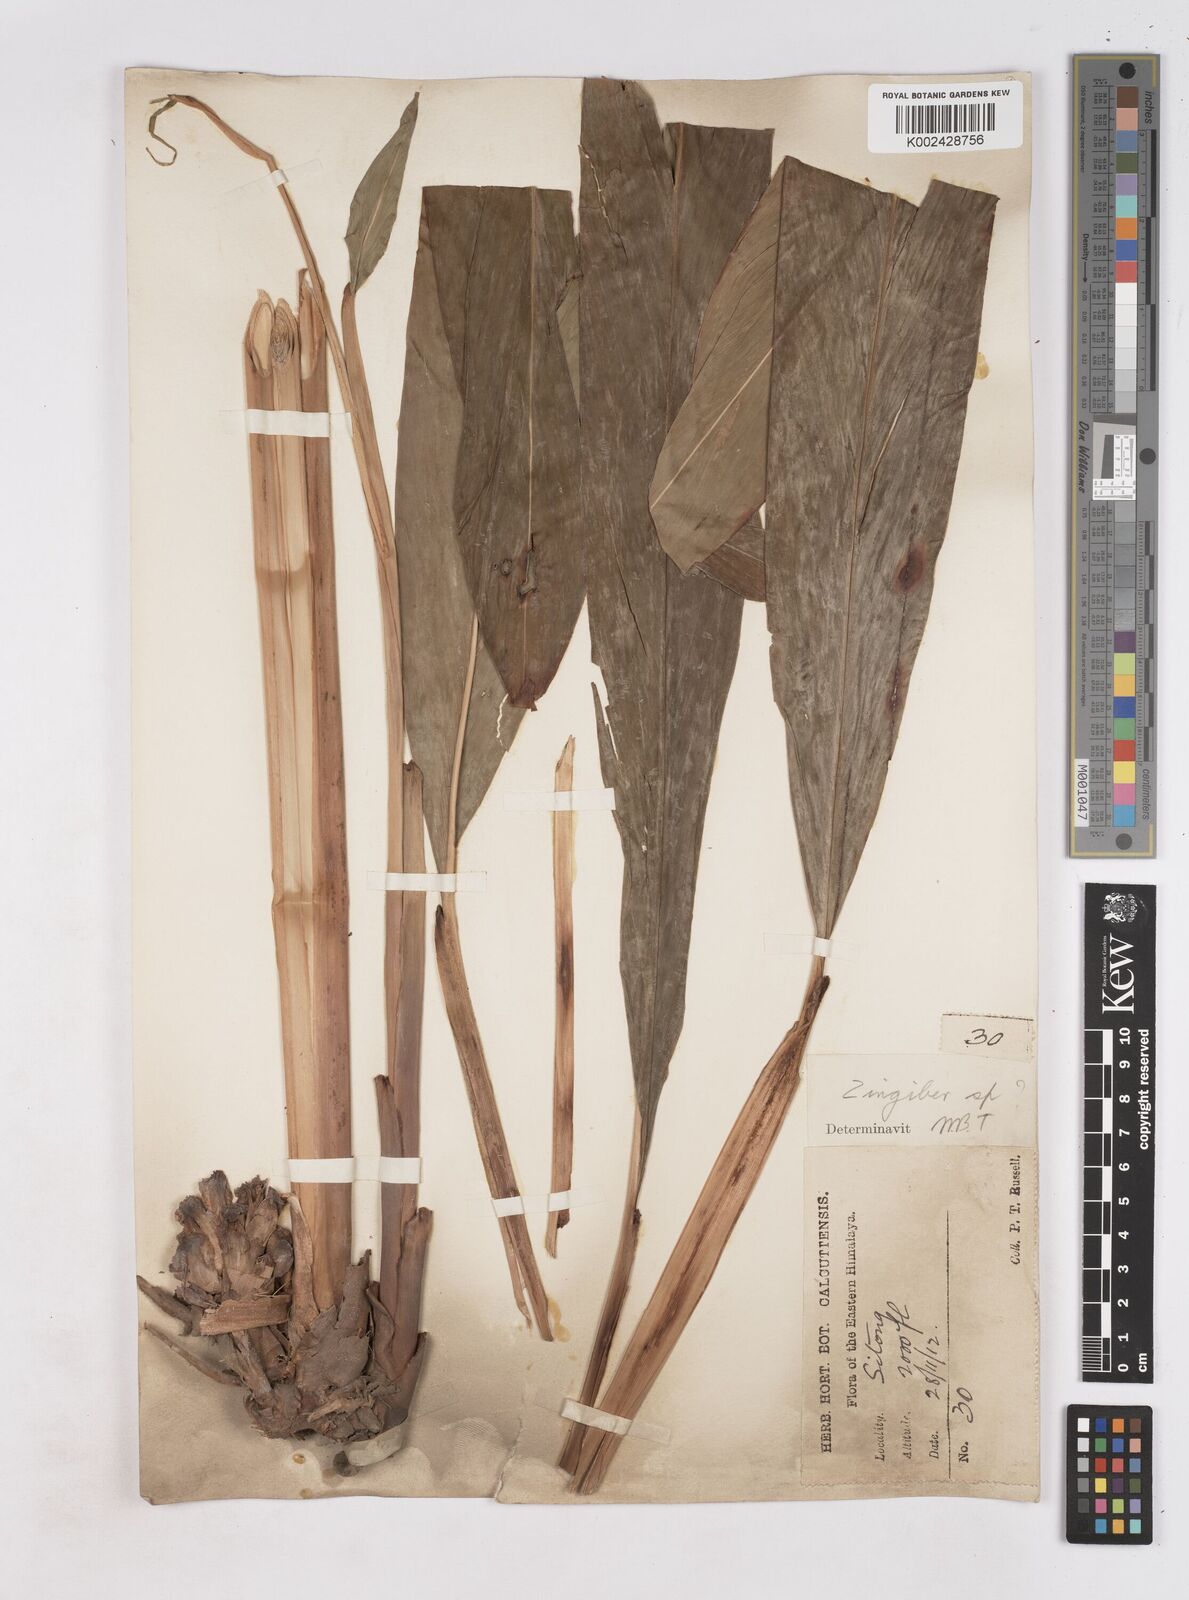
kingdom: Plantae
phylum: Tracheophyta
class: Liliopsida
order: Zingiberales
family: Zingiberaceae
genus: Zingiber
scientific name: Zingiber
